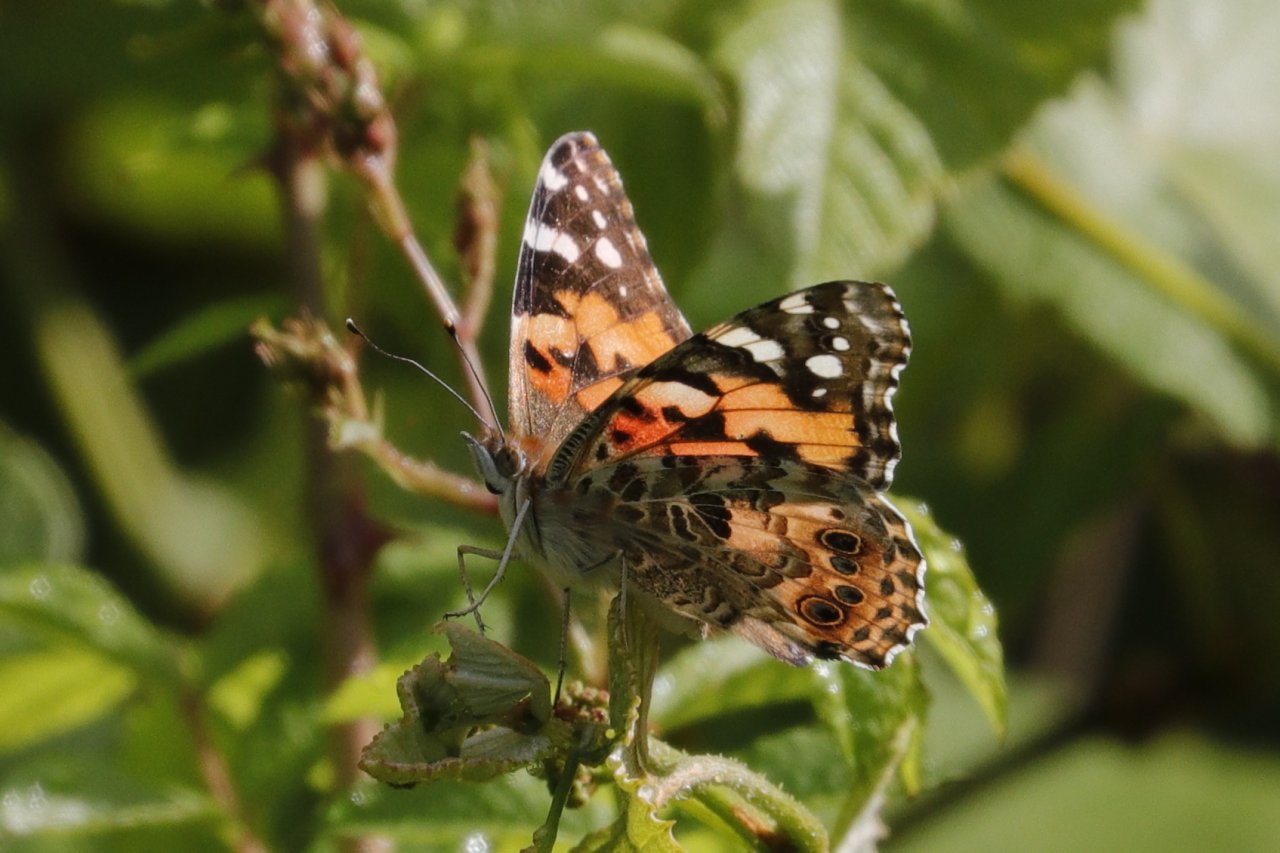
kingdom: Animalia
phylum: Arthropoda
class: Insecta
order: Lepidoptera
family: Nymphalidae
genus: Vanessa
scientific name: Vanessa cardui
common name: Painted Lady
